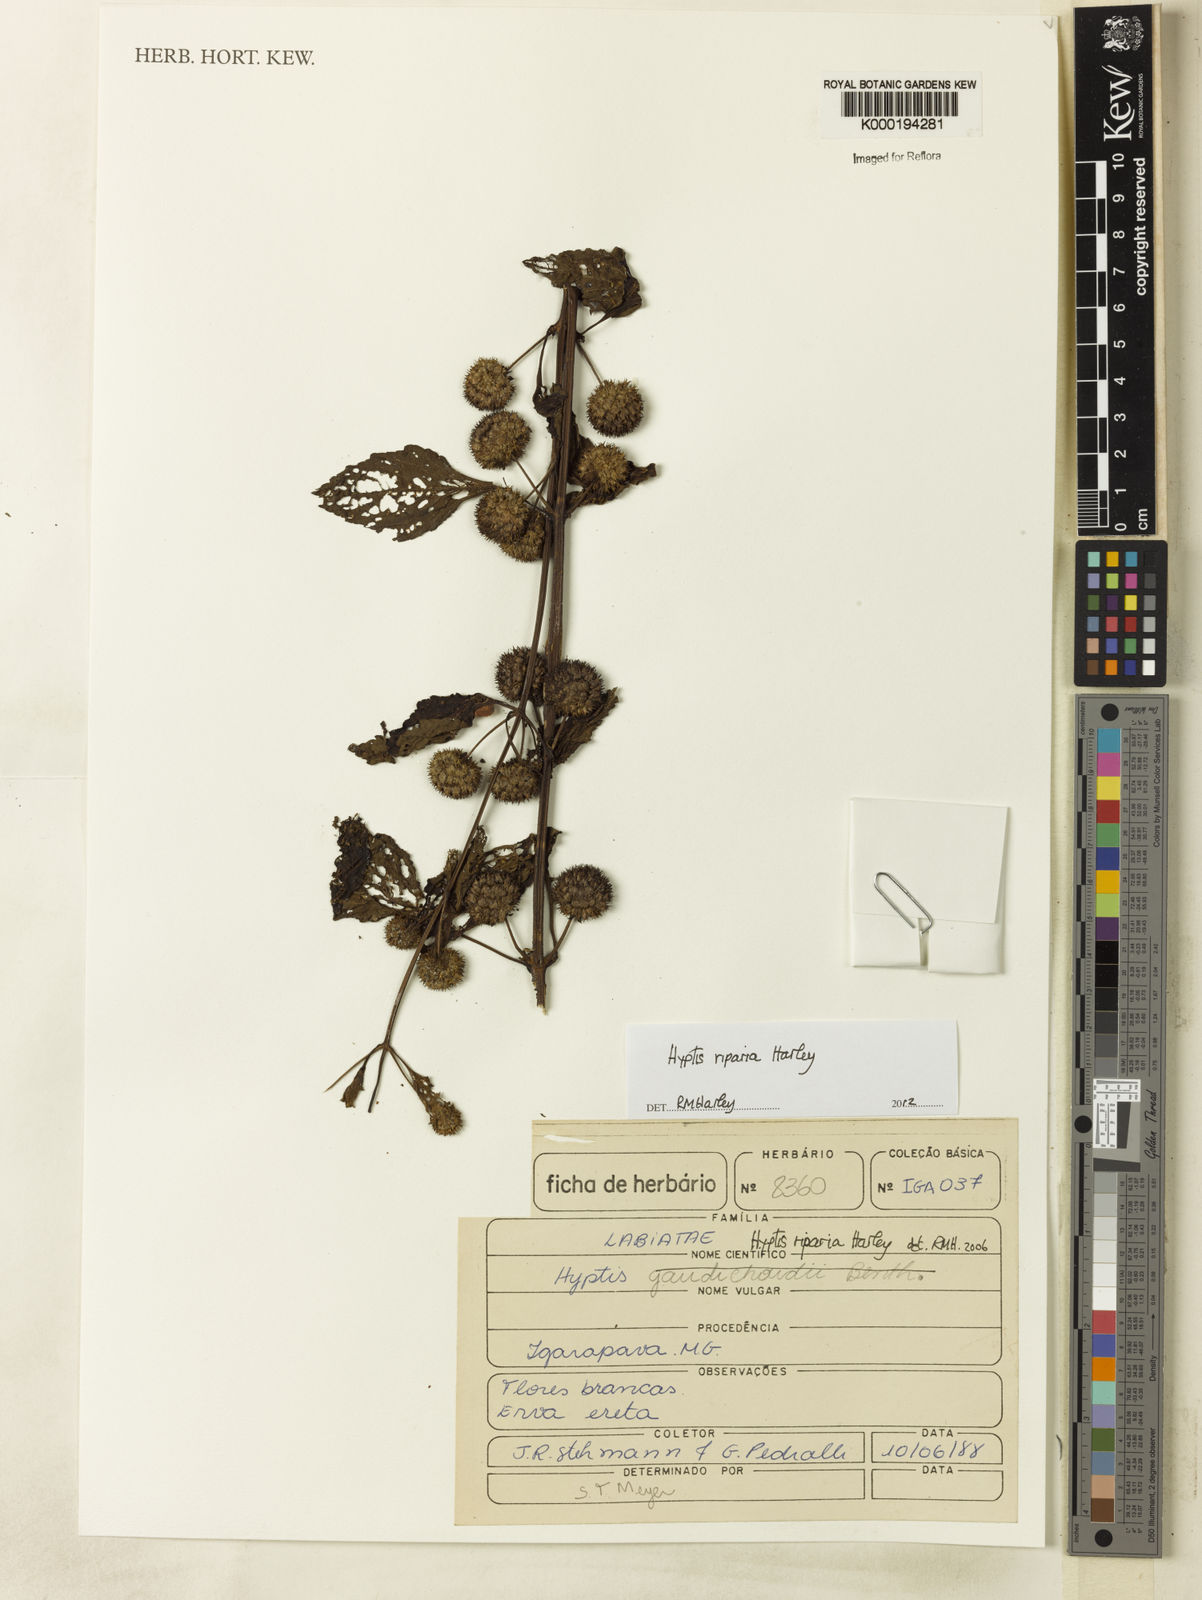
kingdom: Plantae
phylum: Tracheophyta
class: Magnoliopsida
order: Lamiales
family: Lamiaceae
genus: Hyptis
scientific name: Hyptis riparia
